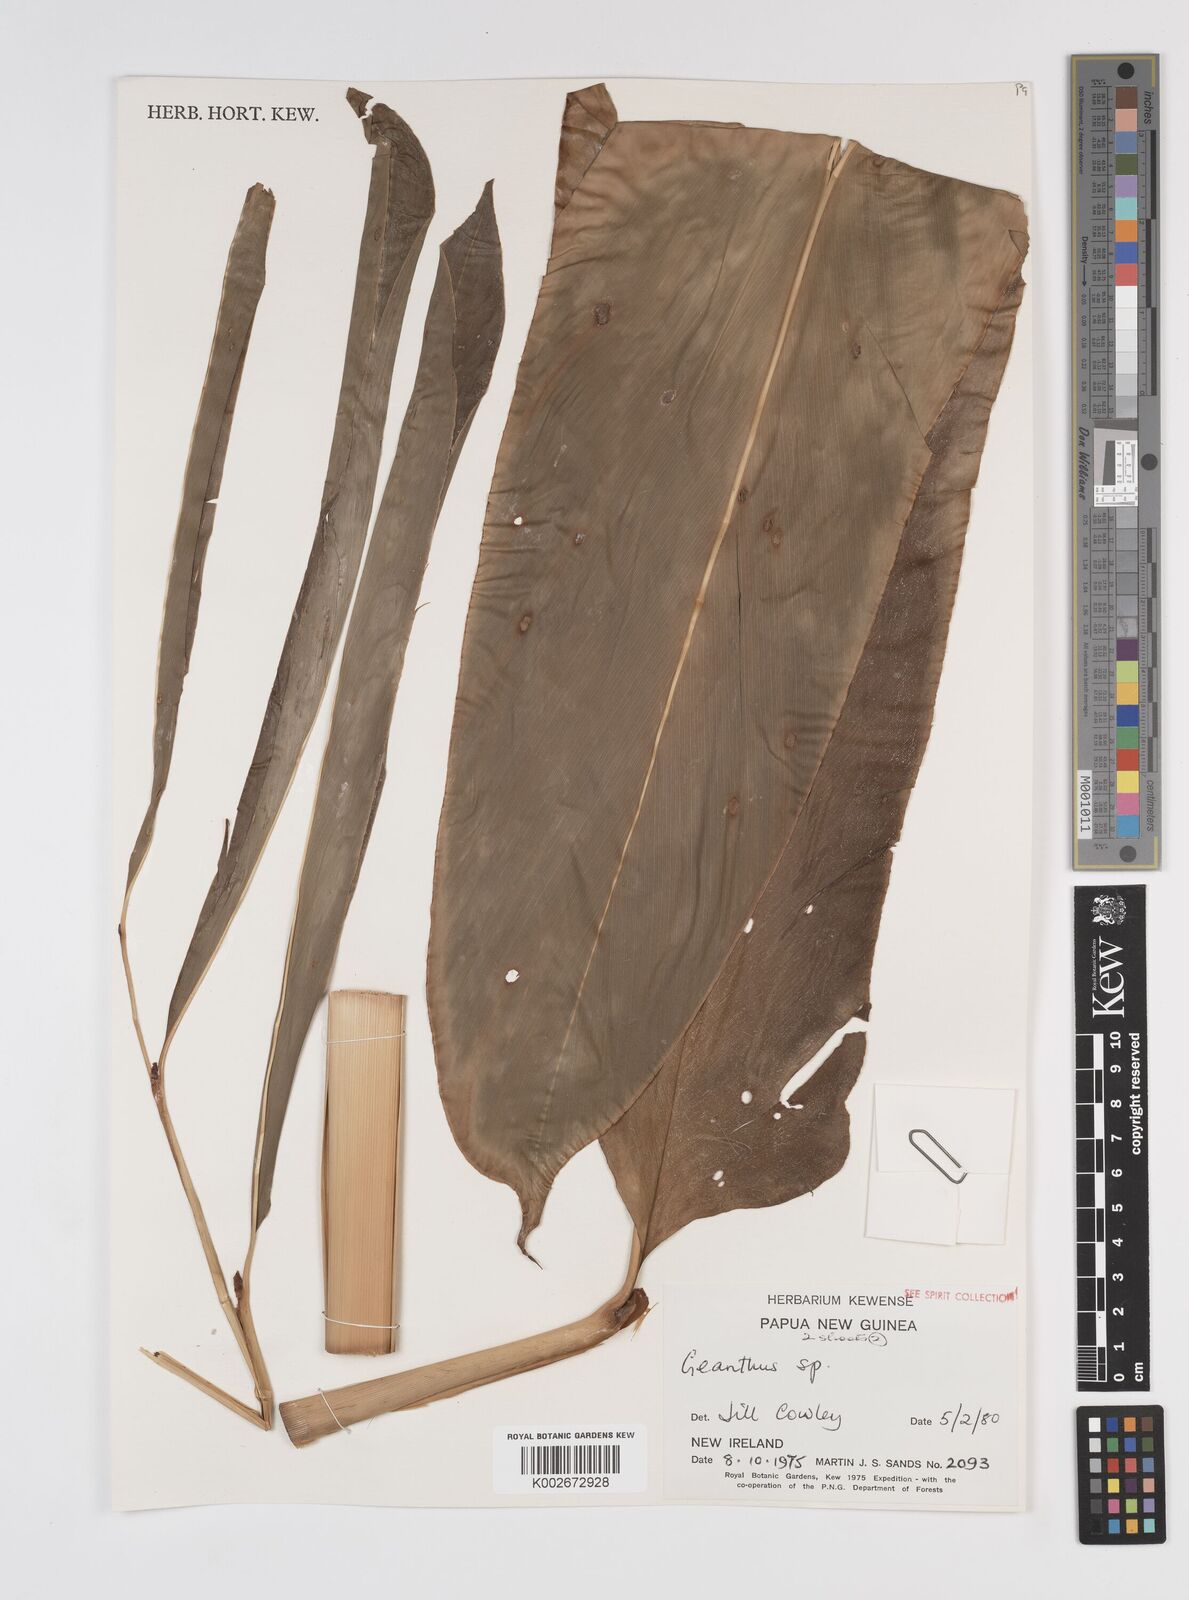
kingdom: Plantae
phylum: Tracheophyta
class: Liliopsida
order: Zingiberales
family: Zingiberaceae
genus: Etlingera
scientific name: Etlingera
